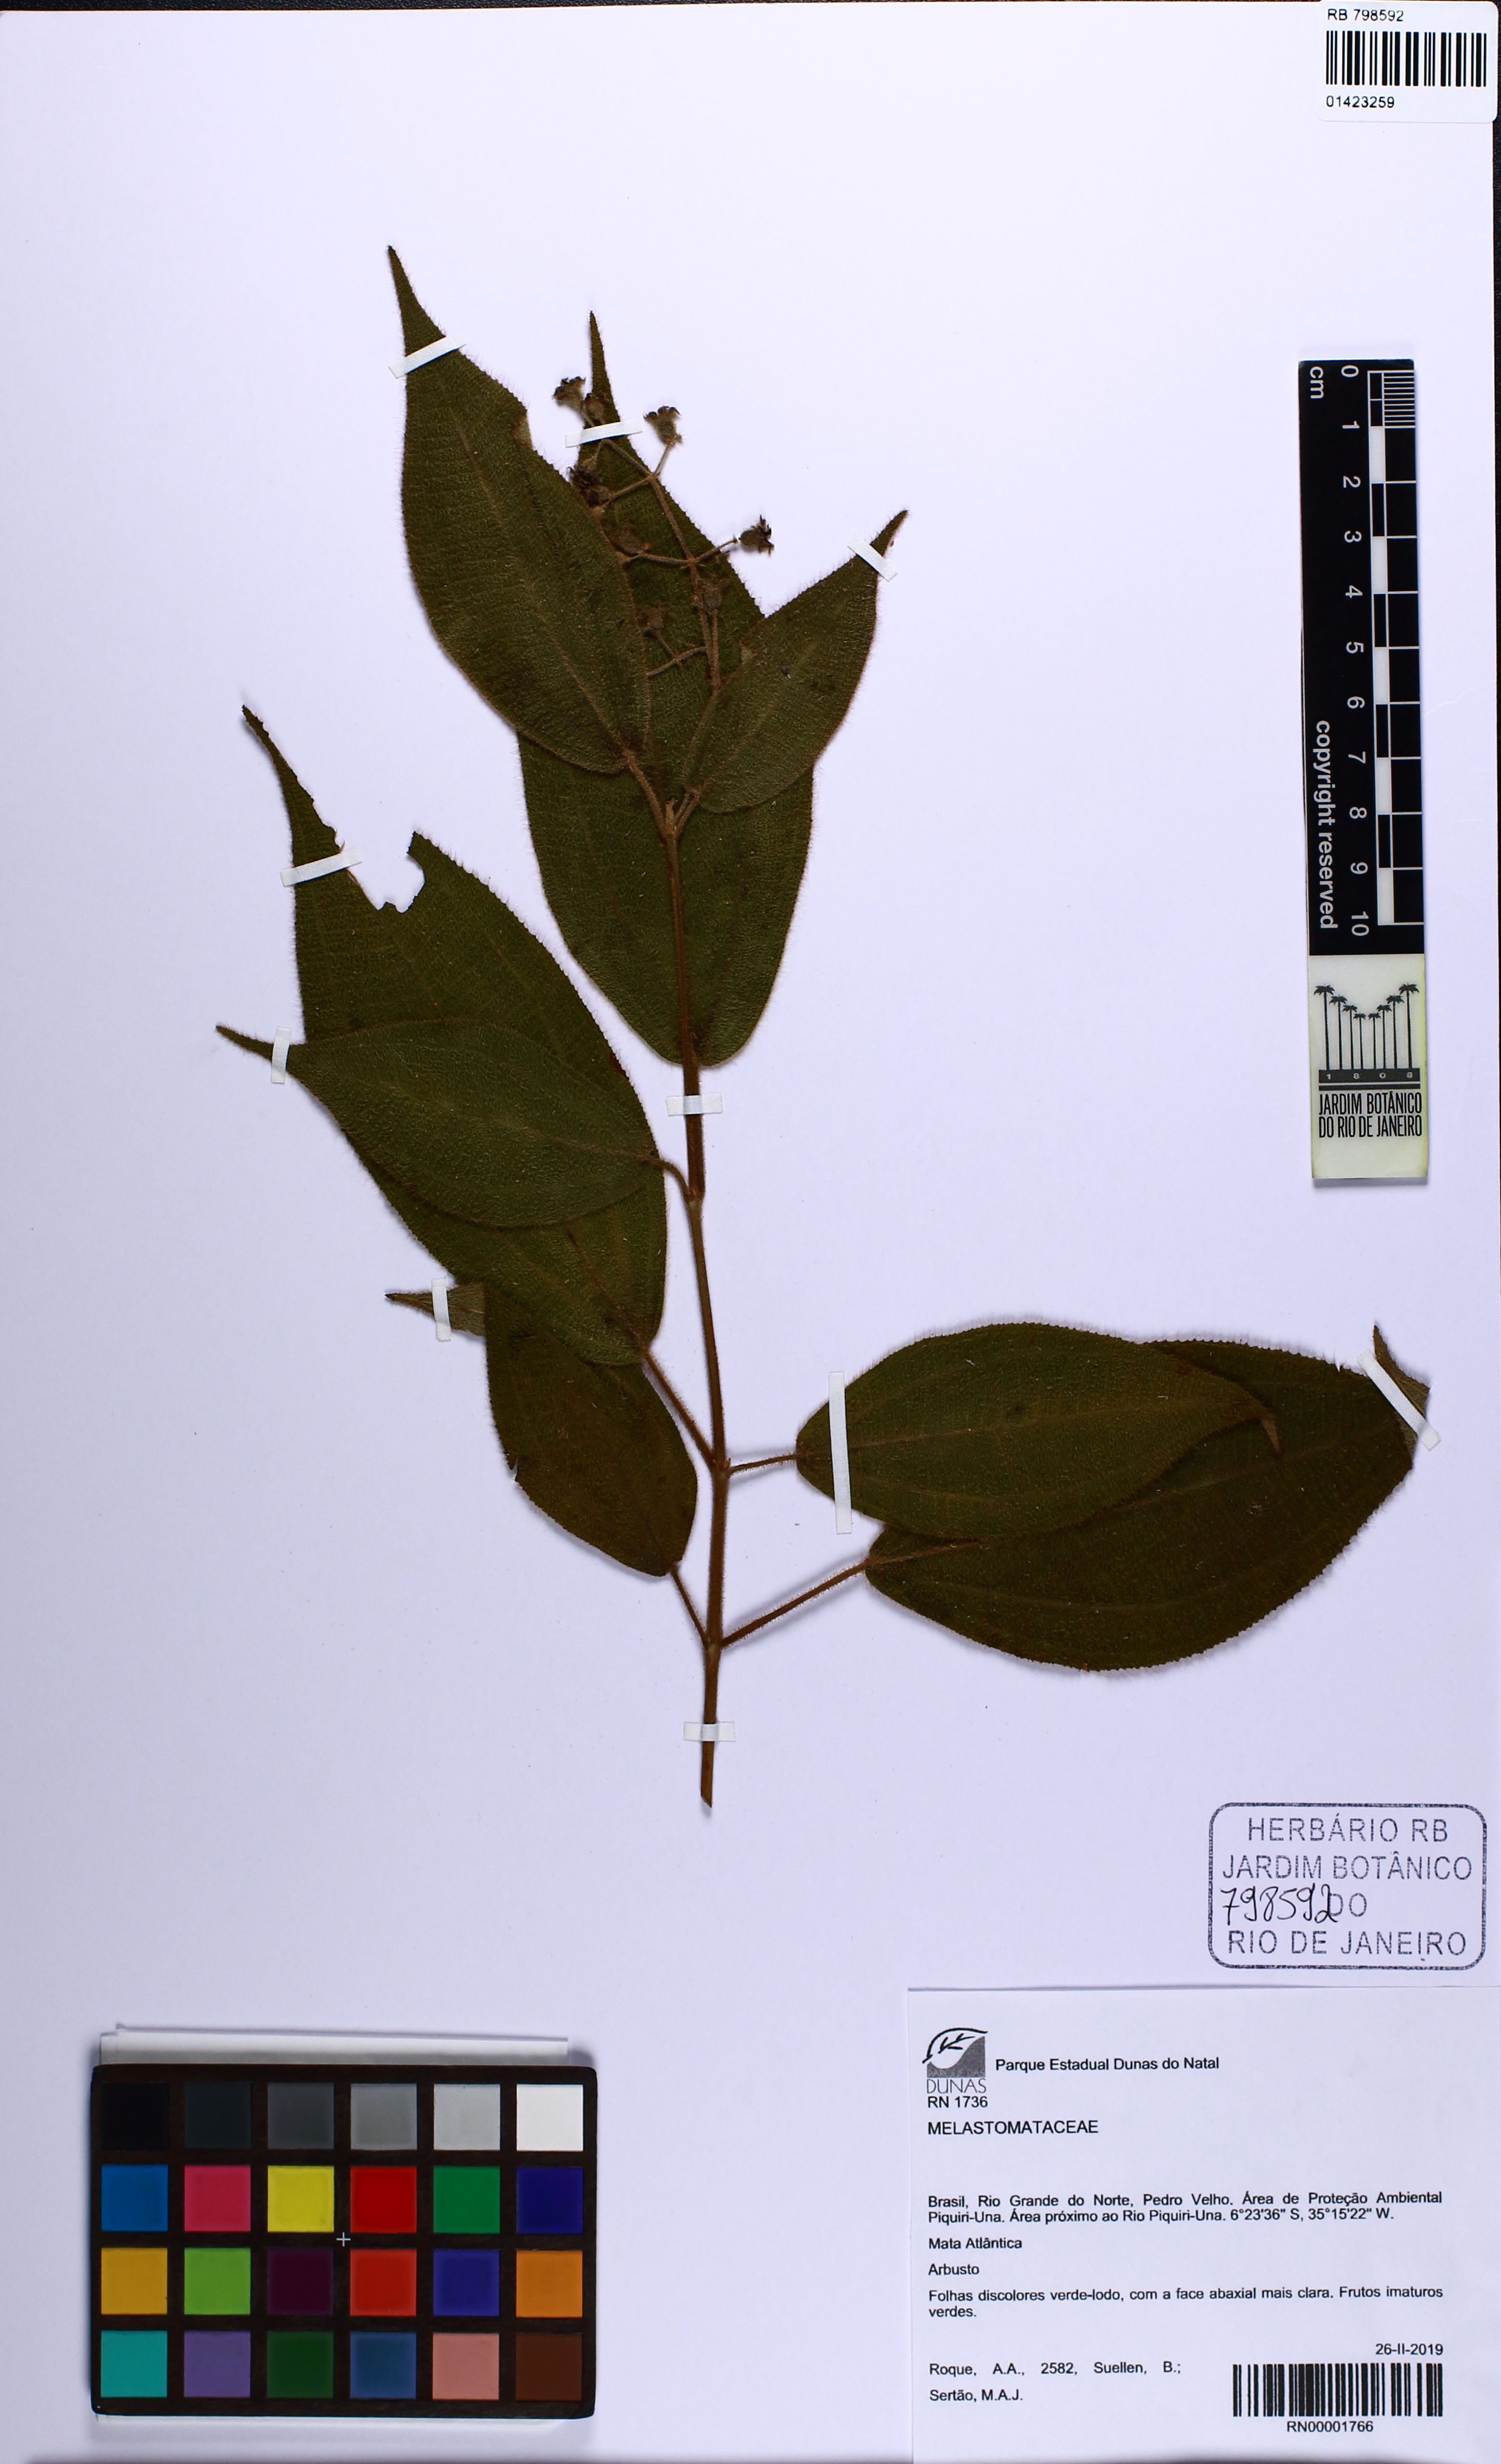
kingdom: Plantae
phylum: Tracheophyta
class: Magnoliopsida
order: Myrtales
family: Melastomataceae
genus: Miconia
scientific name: Miconia neourceolata
